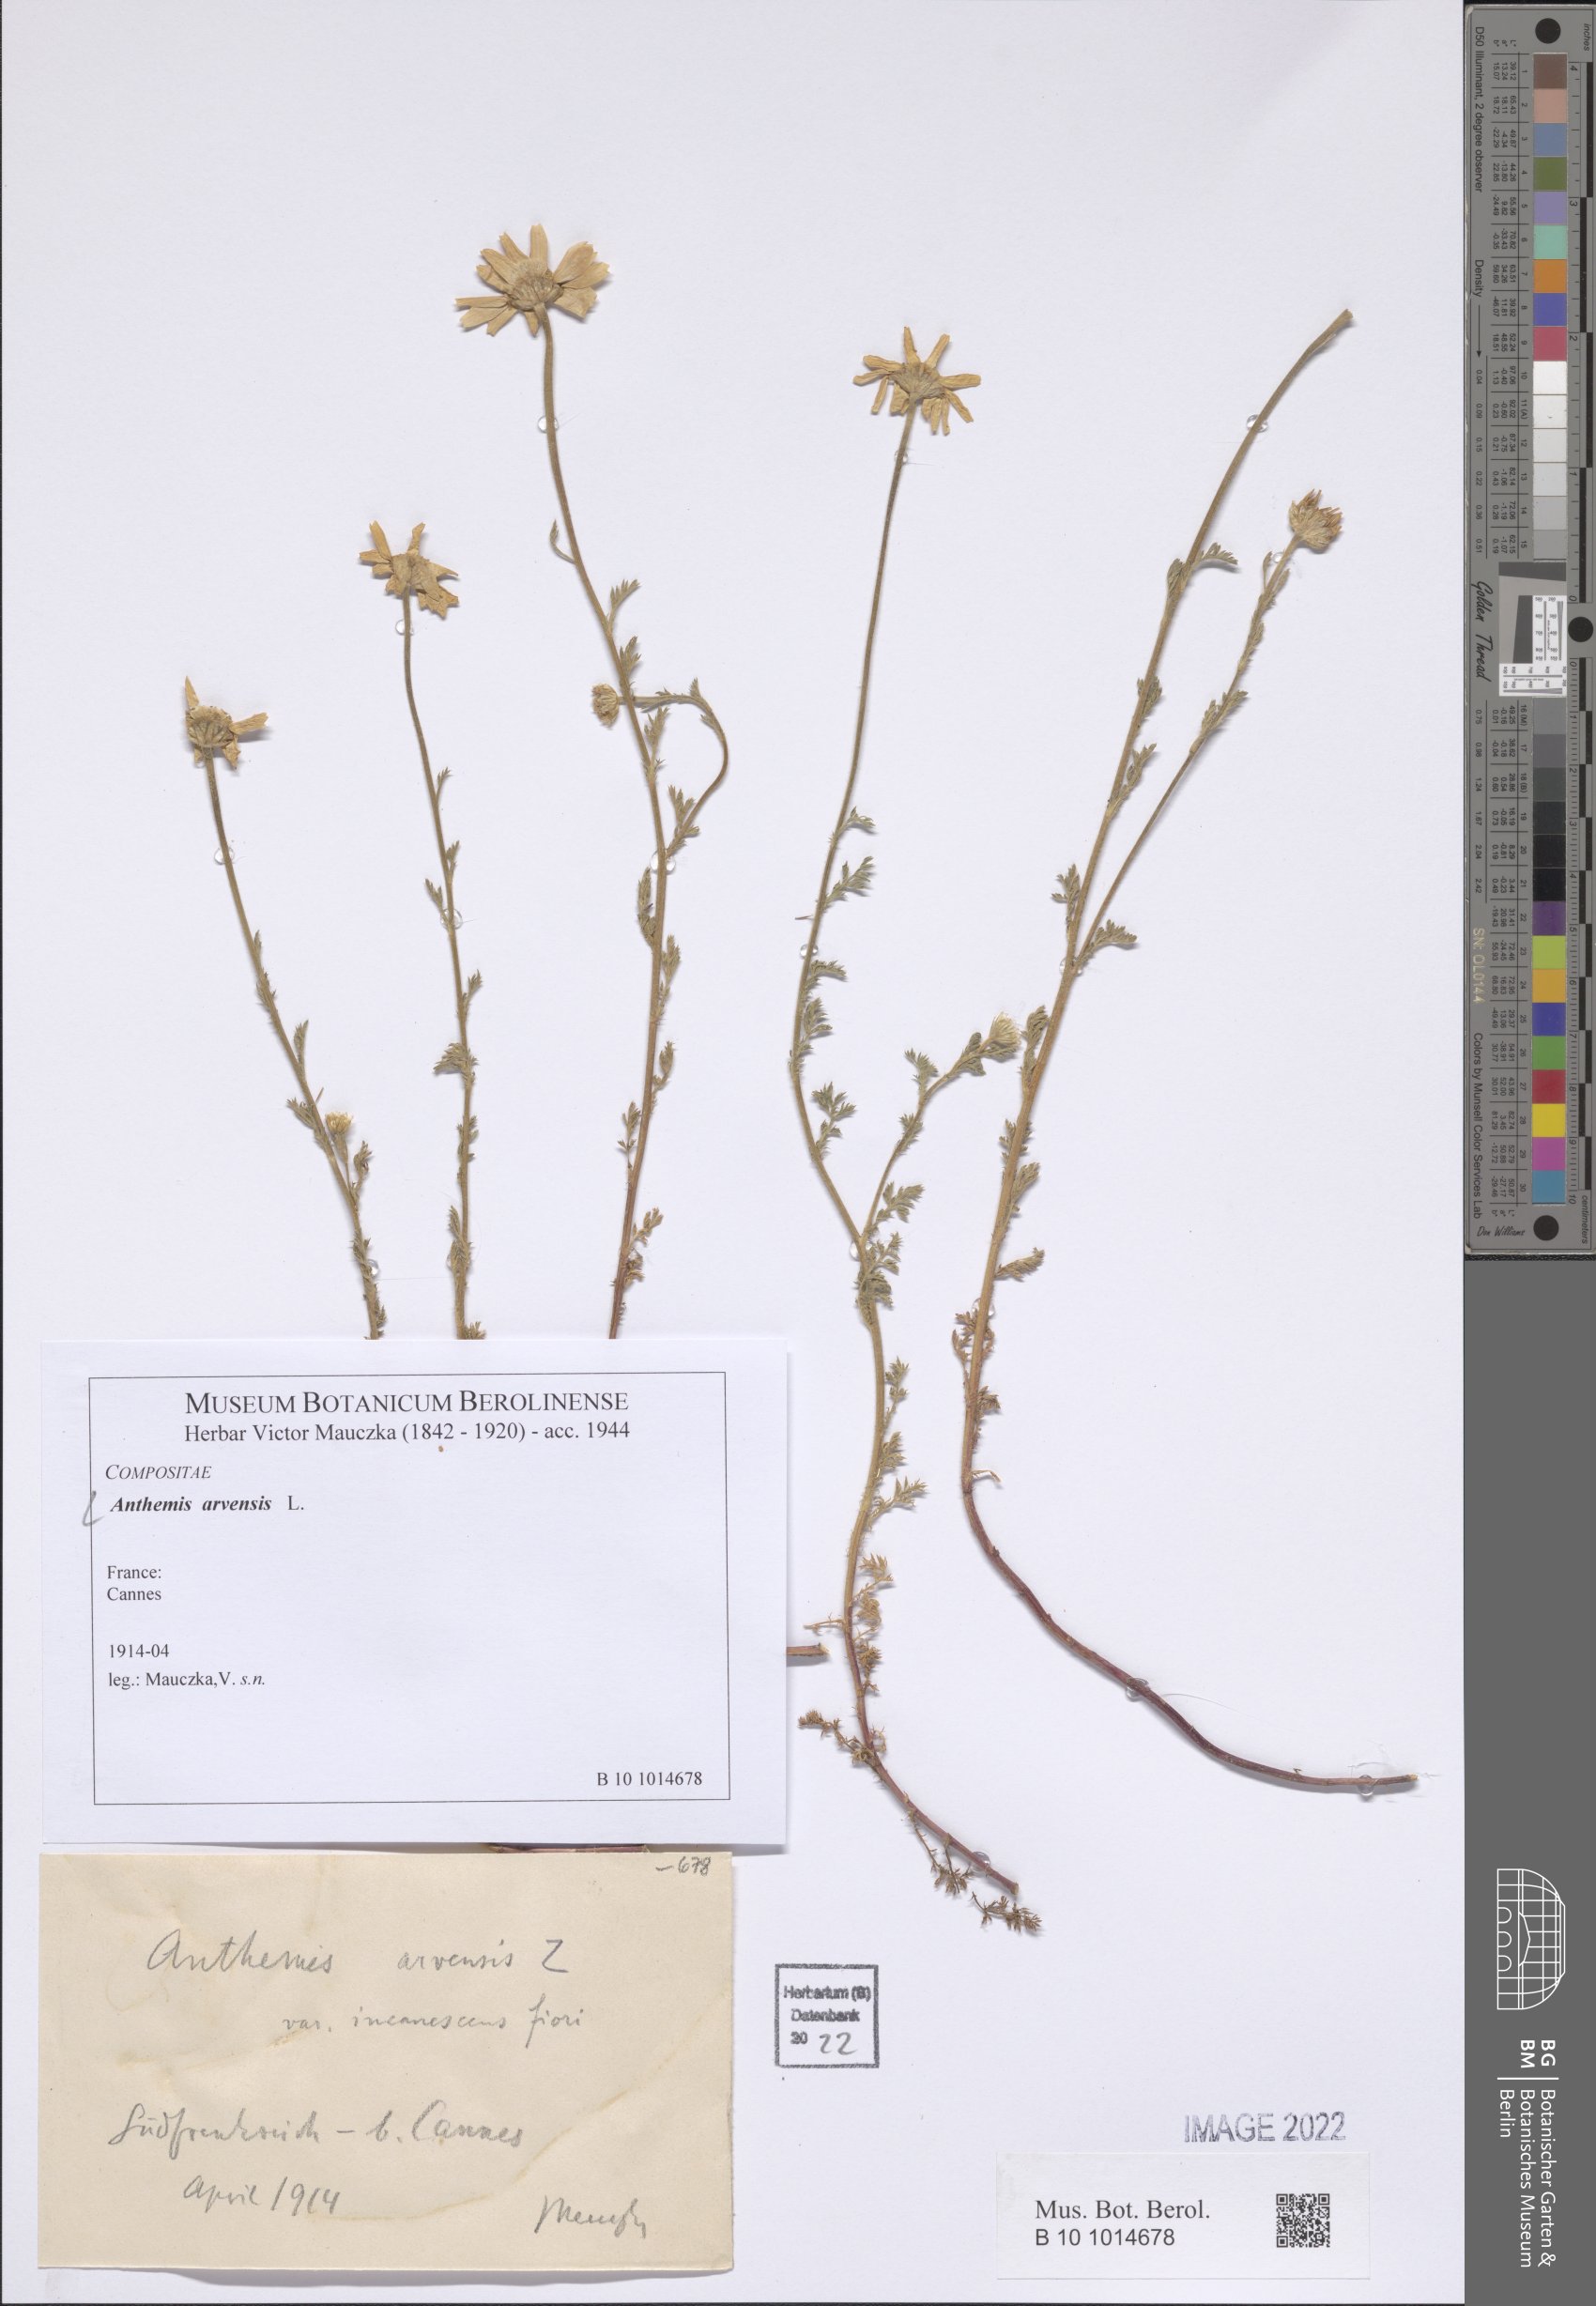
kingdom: Plantae
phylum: Tracheophyta
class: Magnoliopsida
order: Asterales
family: Asteraceae
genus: Anthemis
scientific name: Anthemis arvensis
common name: Corn chamomile
